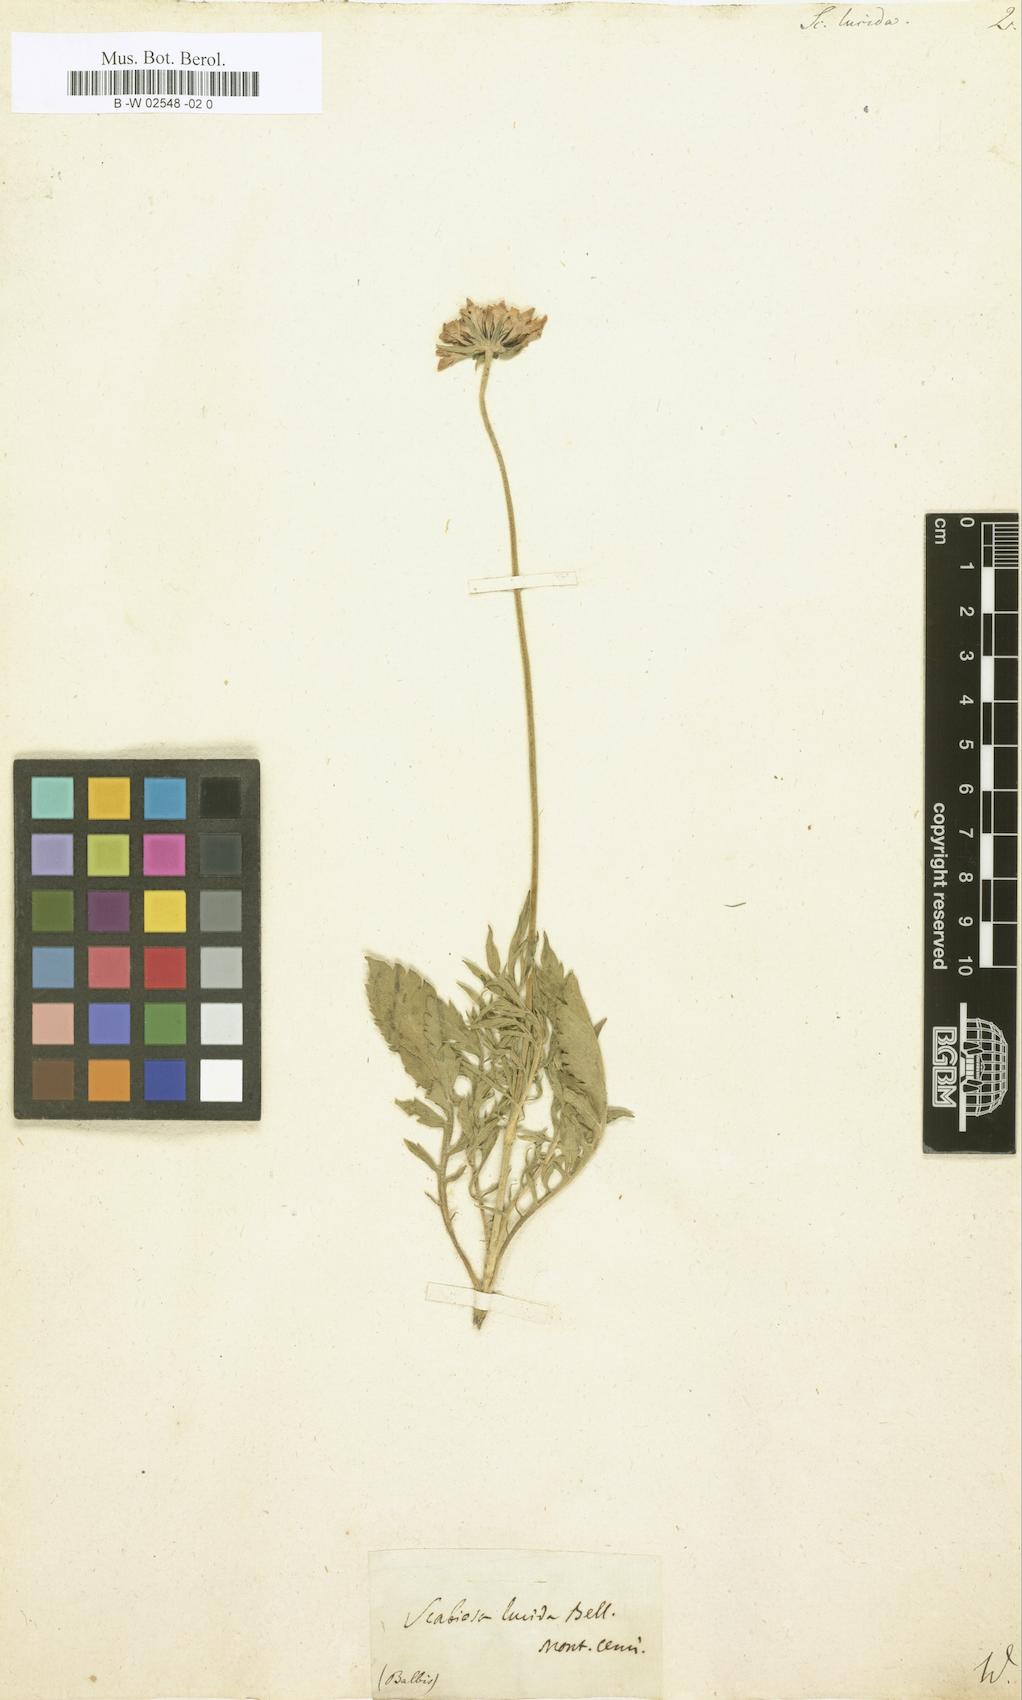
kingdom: Plantae
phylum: Tracheophyta
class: Magnoliopsida
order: Dipsacales
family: Caprifoliaceae
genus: Scabiosa
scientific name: Scabiosa lucida
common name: Shining scabious
